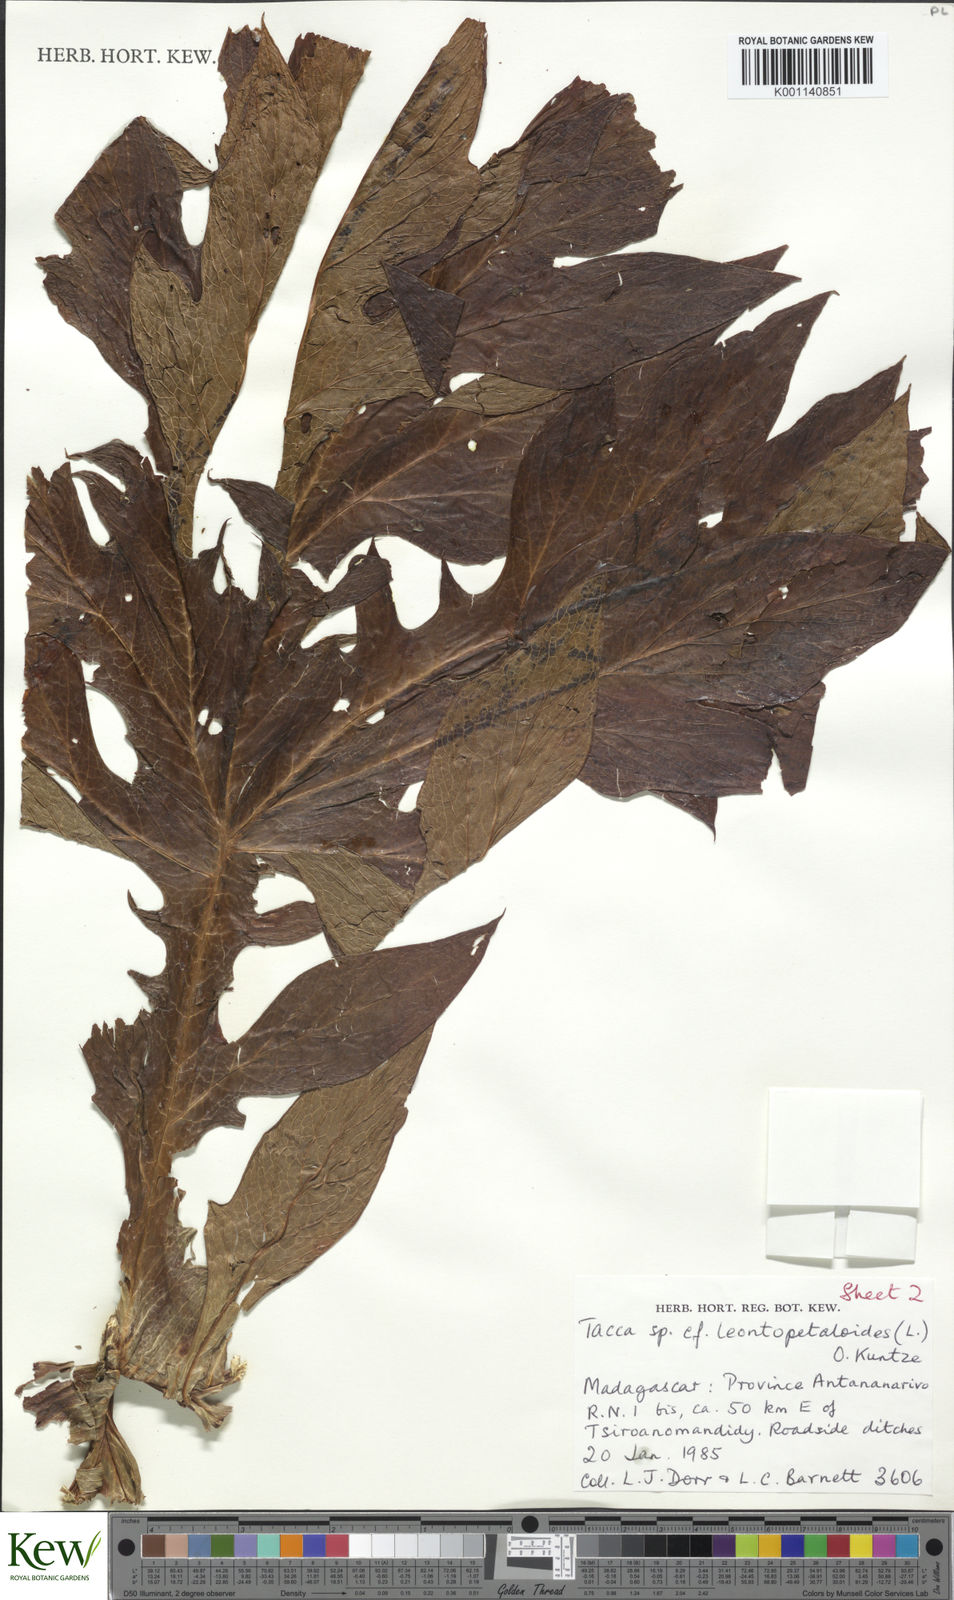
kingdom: Plantae
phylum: Tracheophyta
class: Liliopsida
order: Dioscoreales
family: Dioscoreaceae
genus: Tacca
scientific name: Tacca
